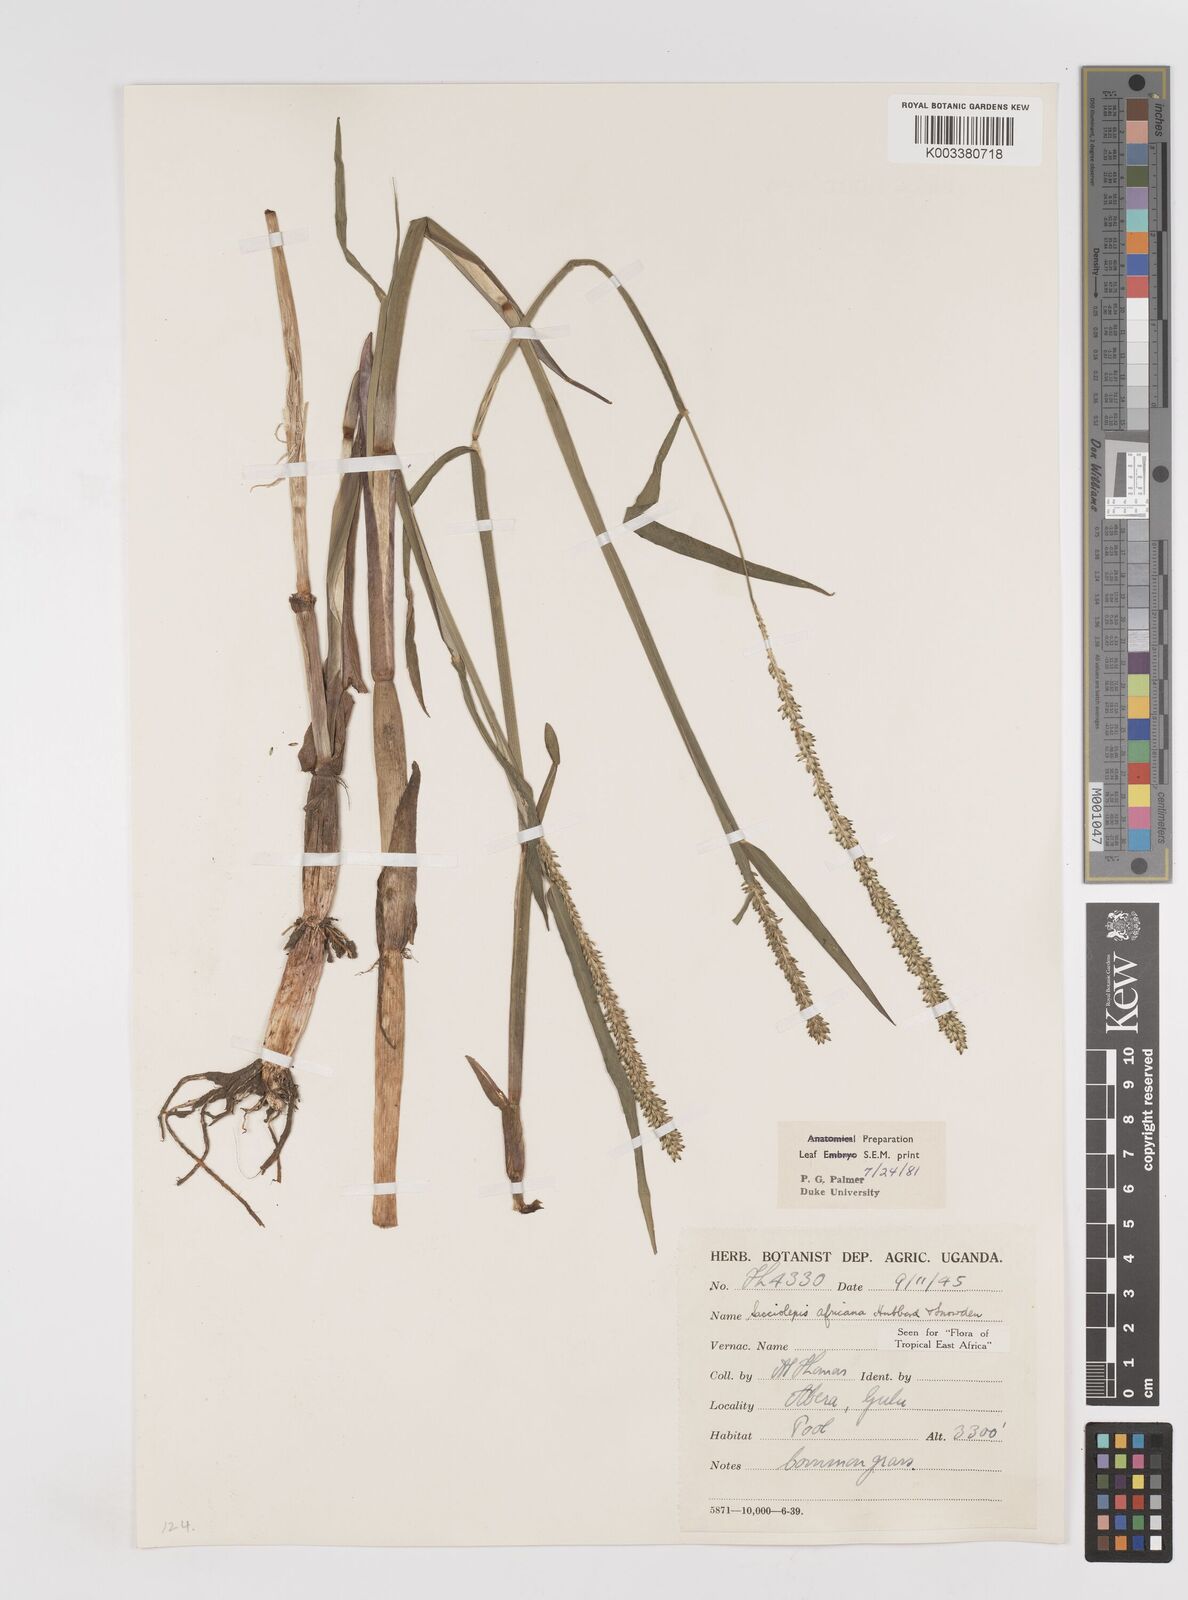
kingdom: Plantae
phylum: Tracheophyta
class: Liliopsida
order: Poales
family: Poaceae
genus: Sacciolepis
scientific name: Sacciolepis africana
